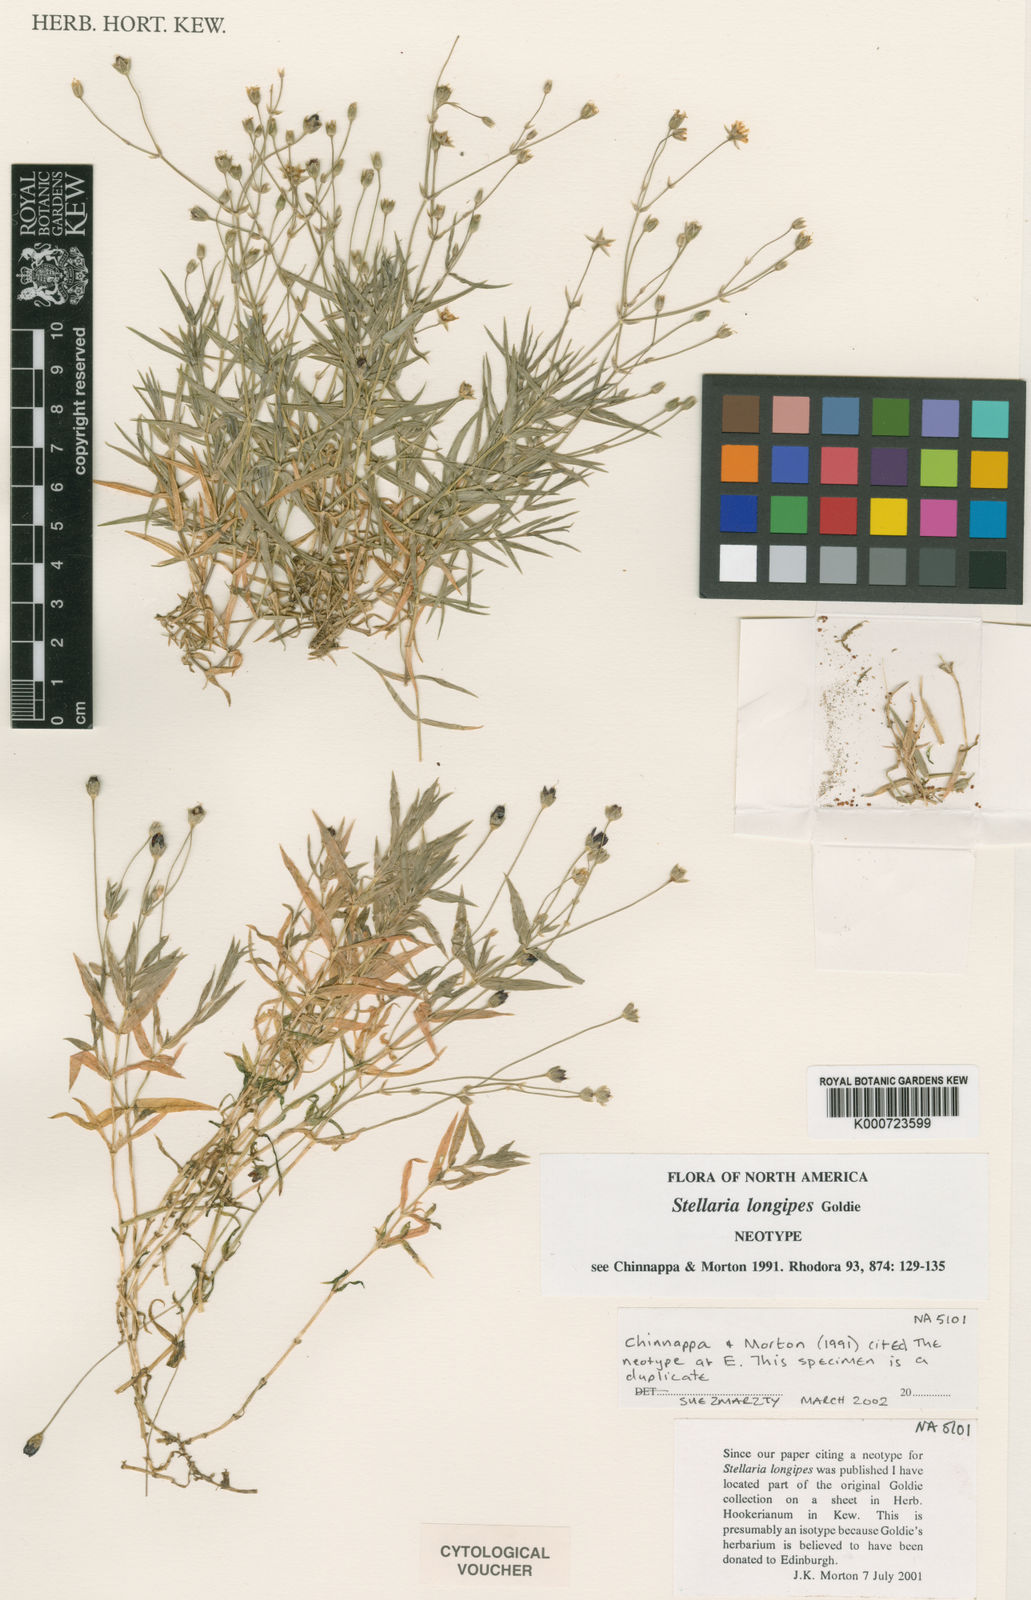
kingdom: Plantae
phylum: Tracheophyta
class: Magnoliopsida
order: Caryophyllales
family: Caryophyllaceae
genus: Stellaria
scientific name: Stellaria longipes
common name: Goldie's starwort
